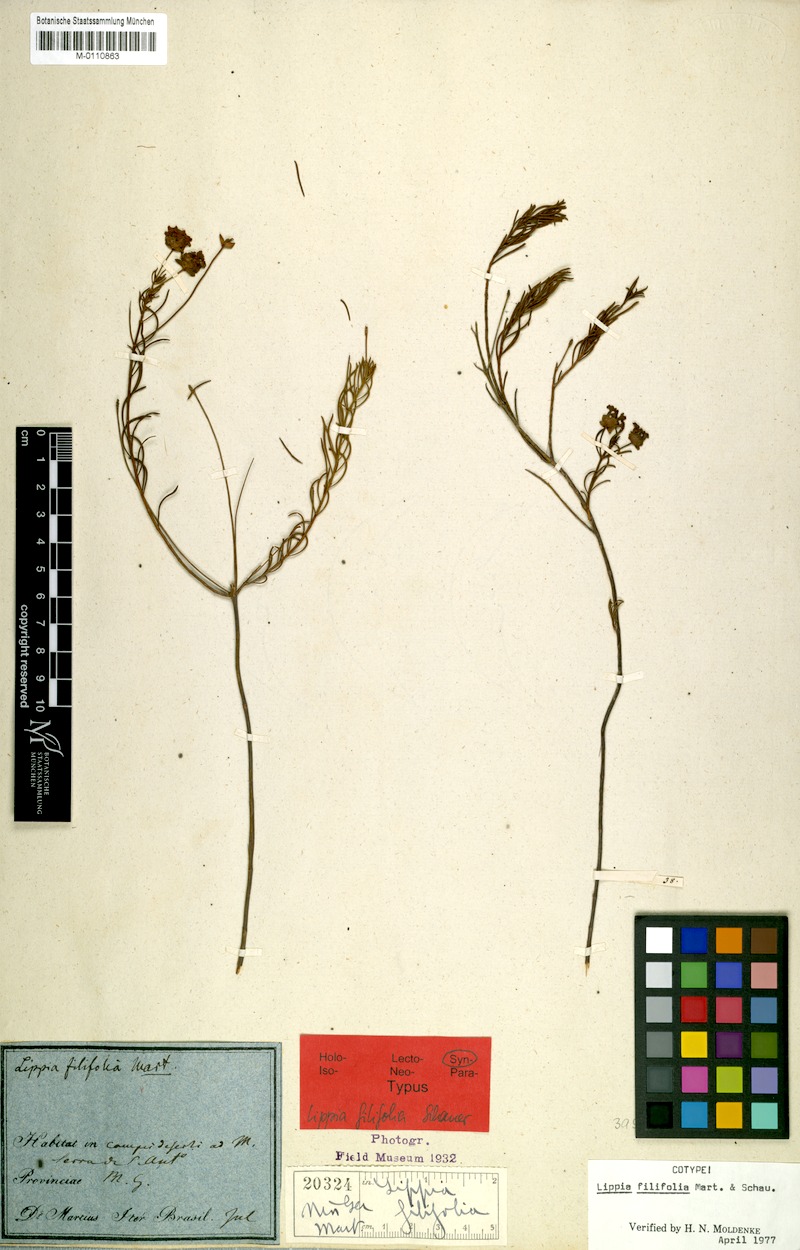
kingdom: Plantae
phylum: Tracheophyta
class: Magnoliopsida
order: Lamiales
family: Verbenaceae
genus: Lippia
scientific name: Lippia filifolia
